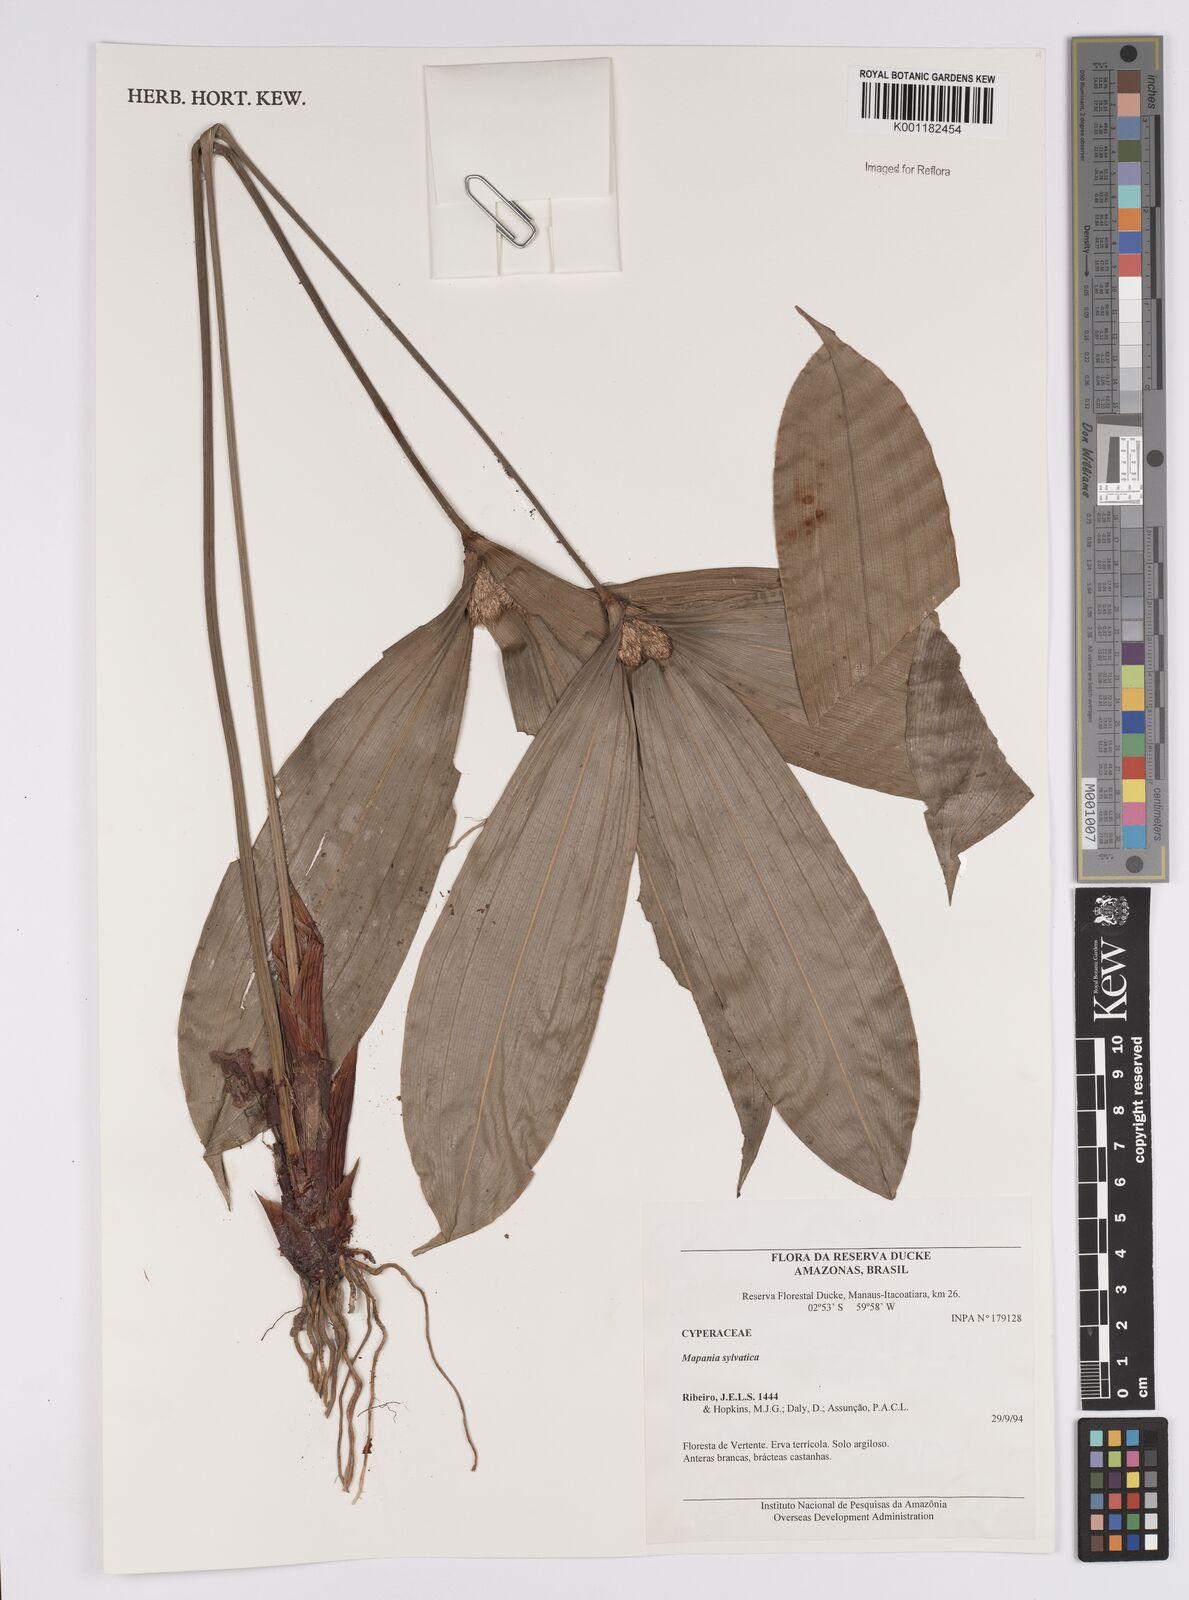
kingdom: Plantae
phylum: Tracheophyta
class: Liliopsida
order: Poales
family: Cyperaceae
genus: Mapania
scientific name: Mapania sylvatica
